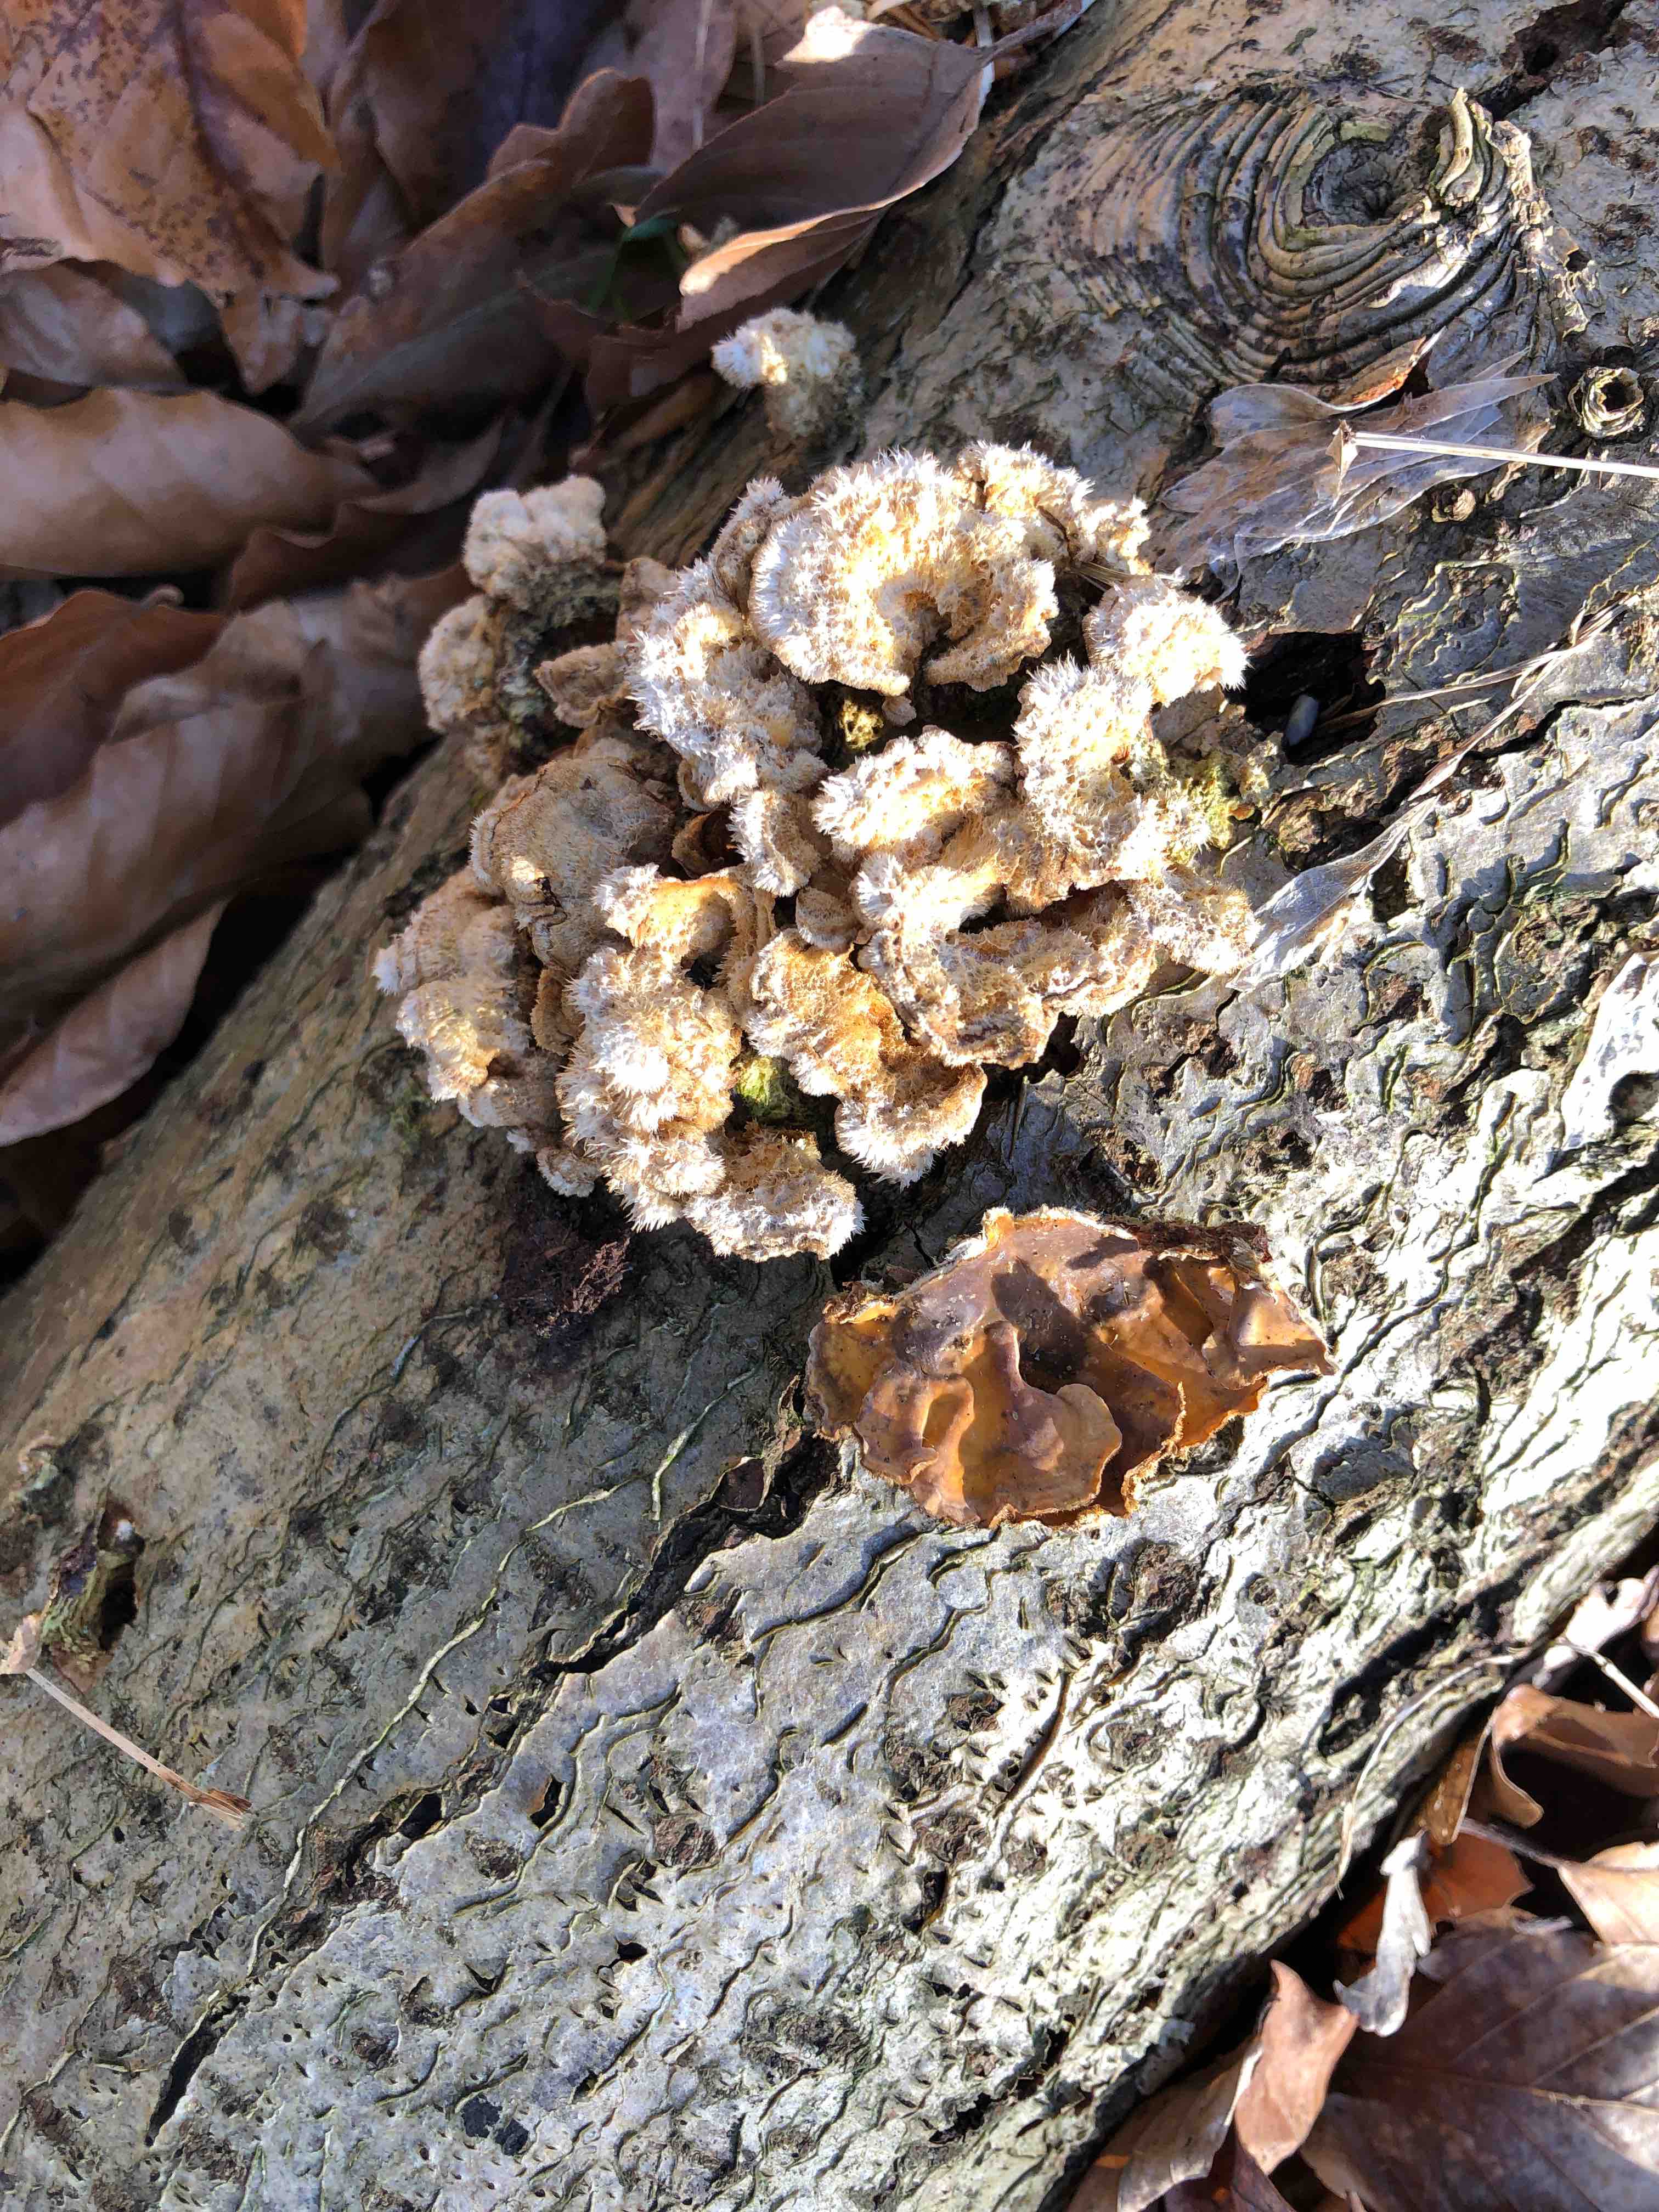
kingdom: Fungi
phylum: Basidiomycota
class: Agaricomycetes
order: Russulales
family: Stereaceae
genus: Stereum
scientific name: Stereum hirsutum
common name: håret lædersvamp
